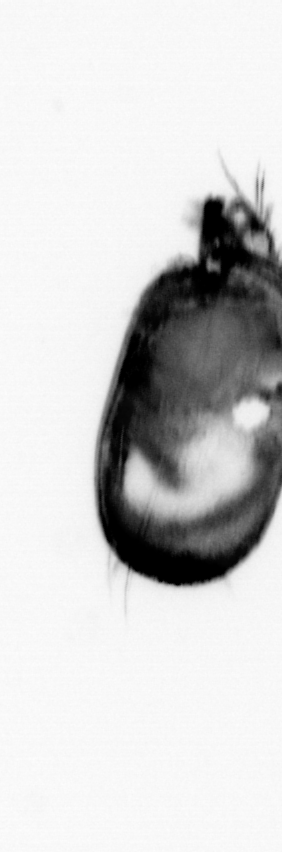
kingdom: Animalia
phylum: Annelida
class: Polychaeta
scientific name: Polychaeta
